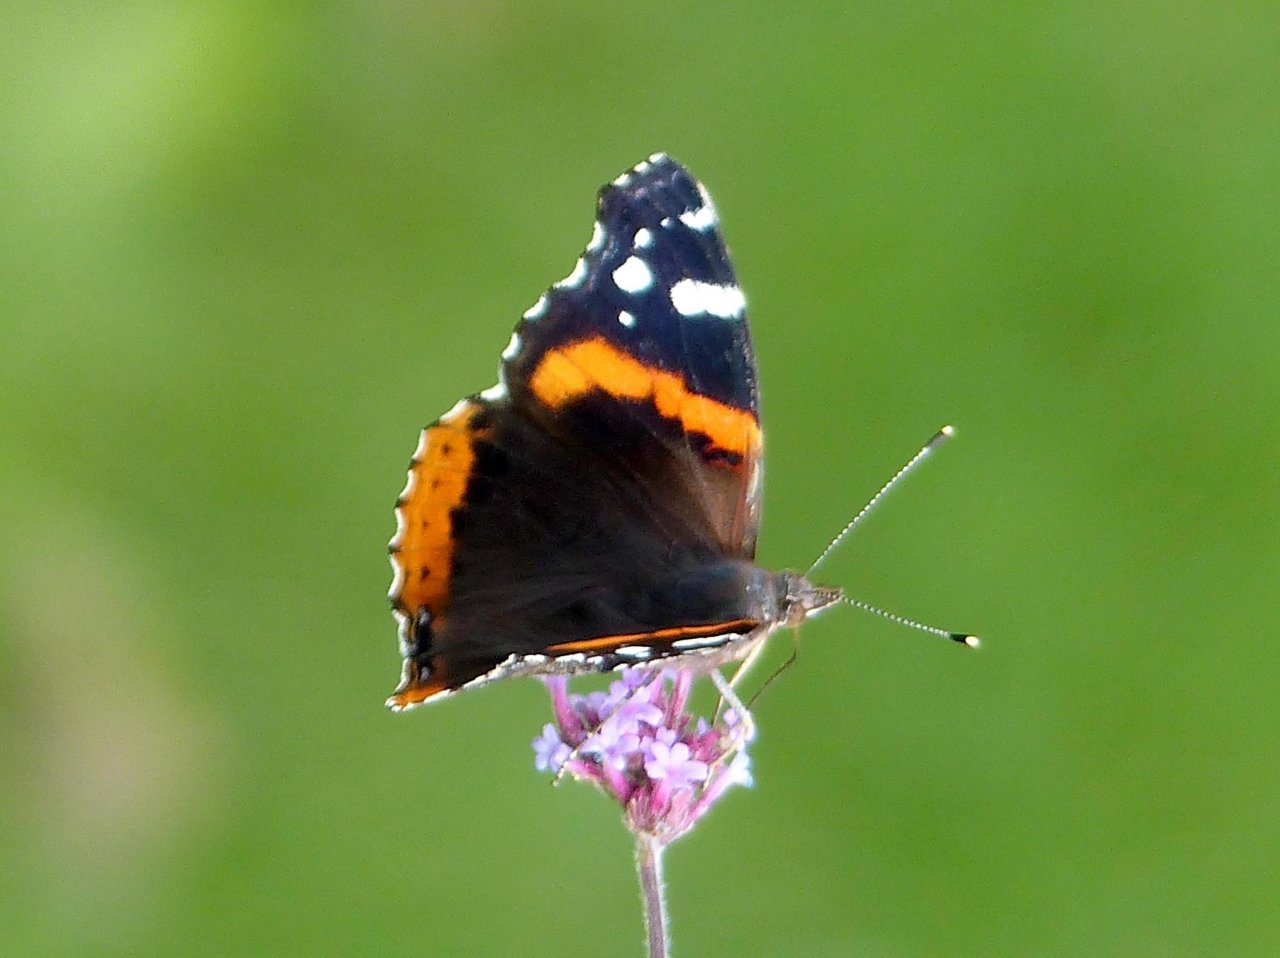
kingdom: Animalia
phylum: Arthropoda
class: Insecta
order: Lepidoptera
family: Nymphalidae
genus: Vanessa
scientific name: Vanessa atalanta
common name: Red Admiral
